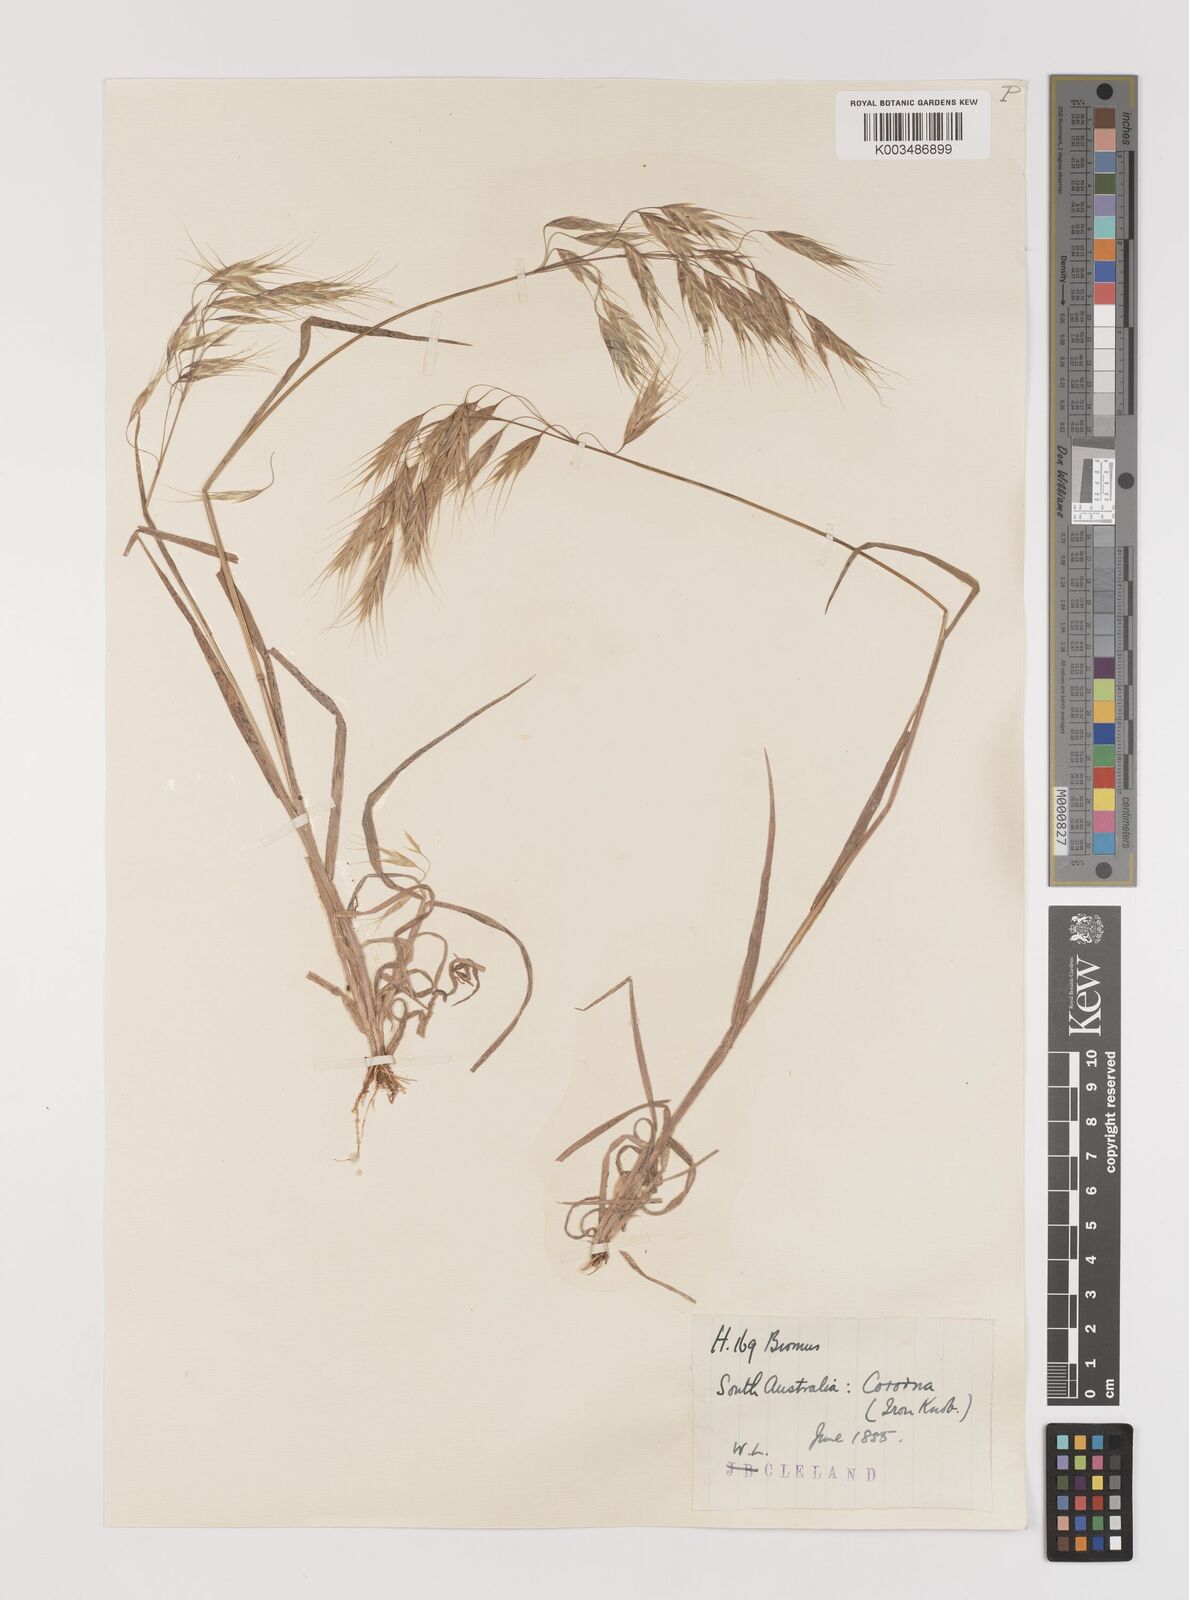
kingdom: Plantae
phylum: Tracheophyta
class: Liliopsida
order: Poales
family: Poaceae
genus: Bromus
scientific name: Bromus arenarius
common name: Australian brome
